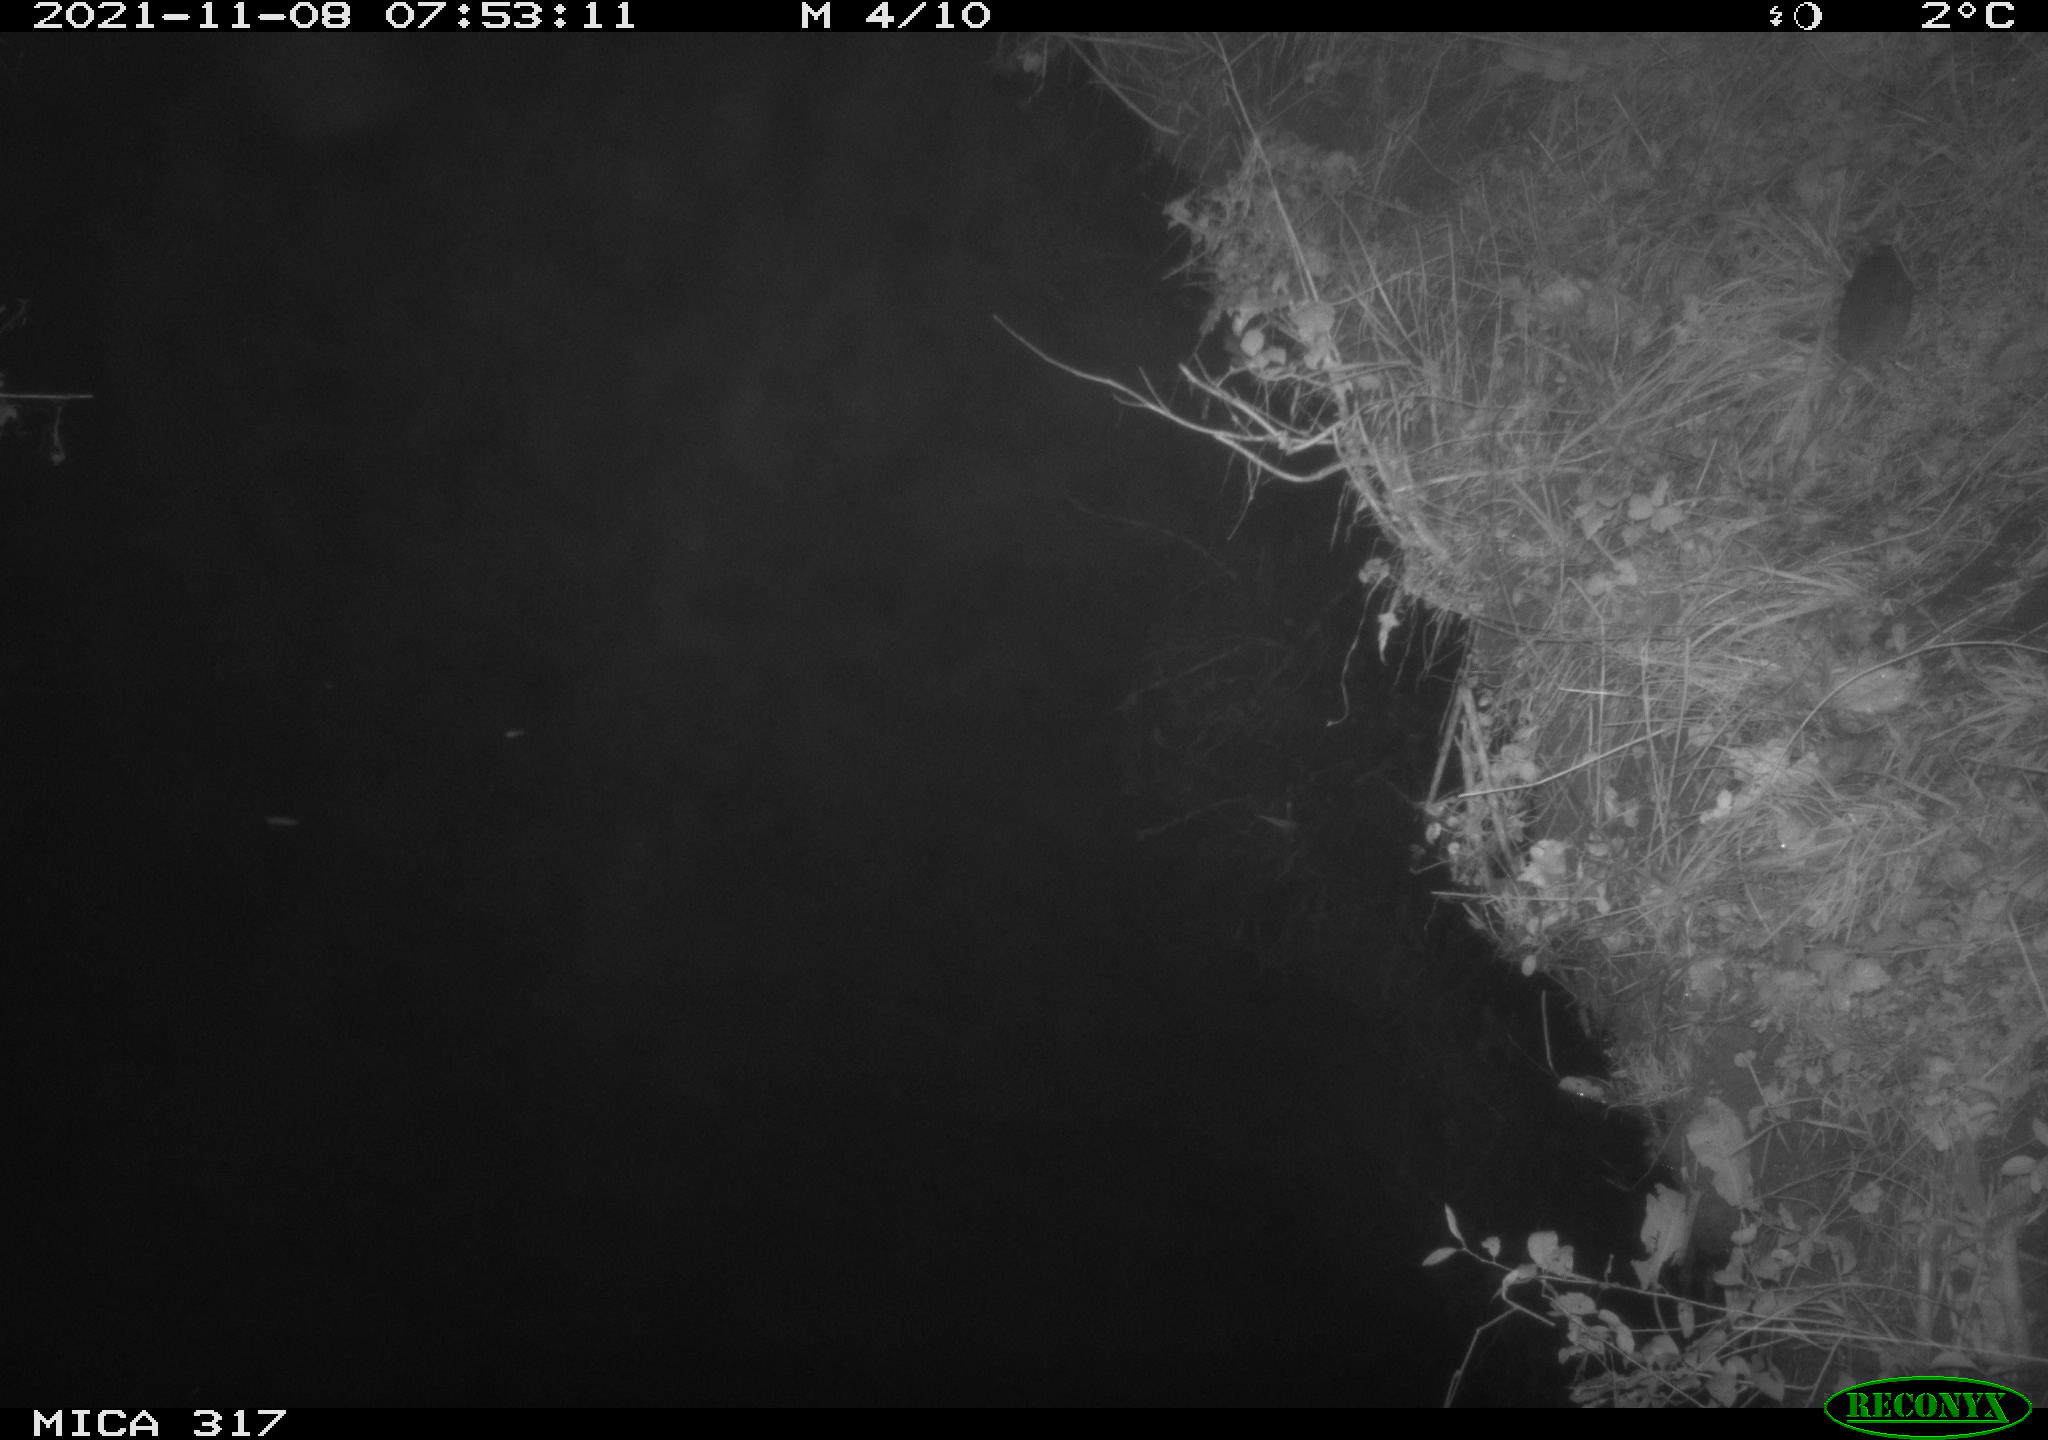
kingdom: Animalia
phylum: Chordata
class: Mammalia
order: Rodentia
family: Muridae
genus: Rattus
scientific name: Rattus norvegicus
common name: Brown rat
